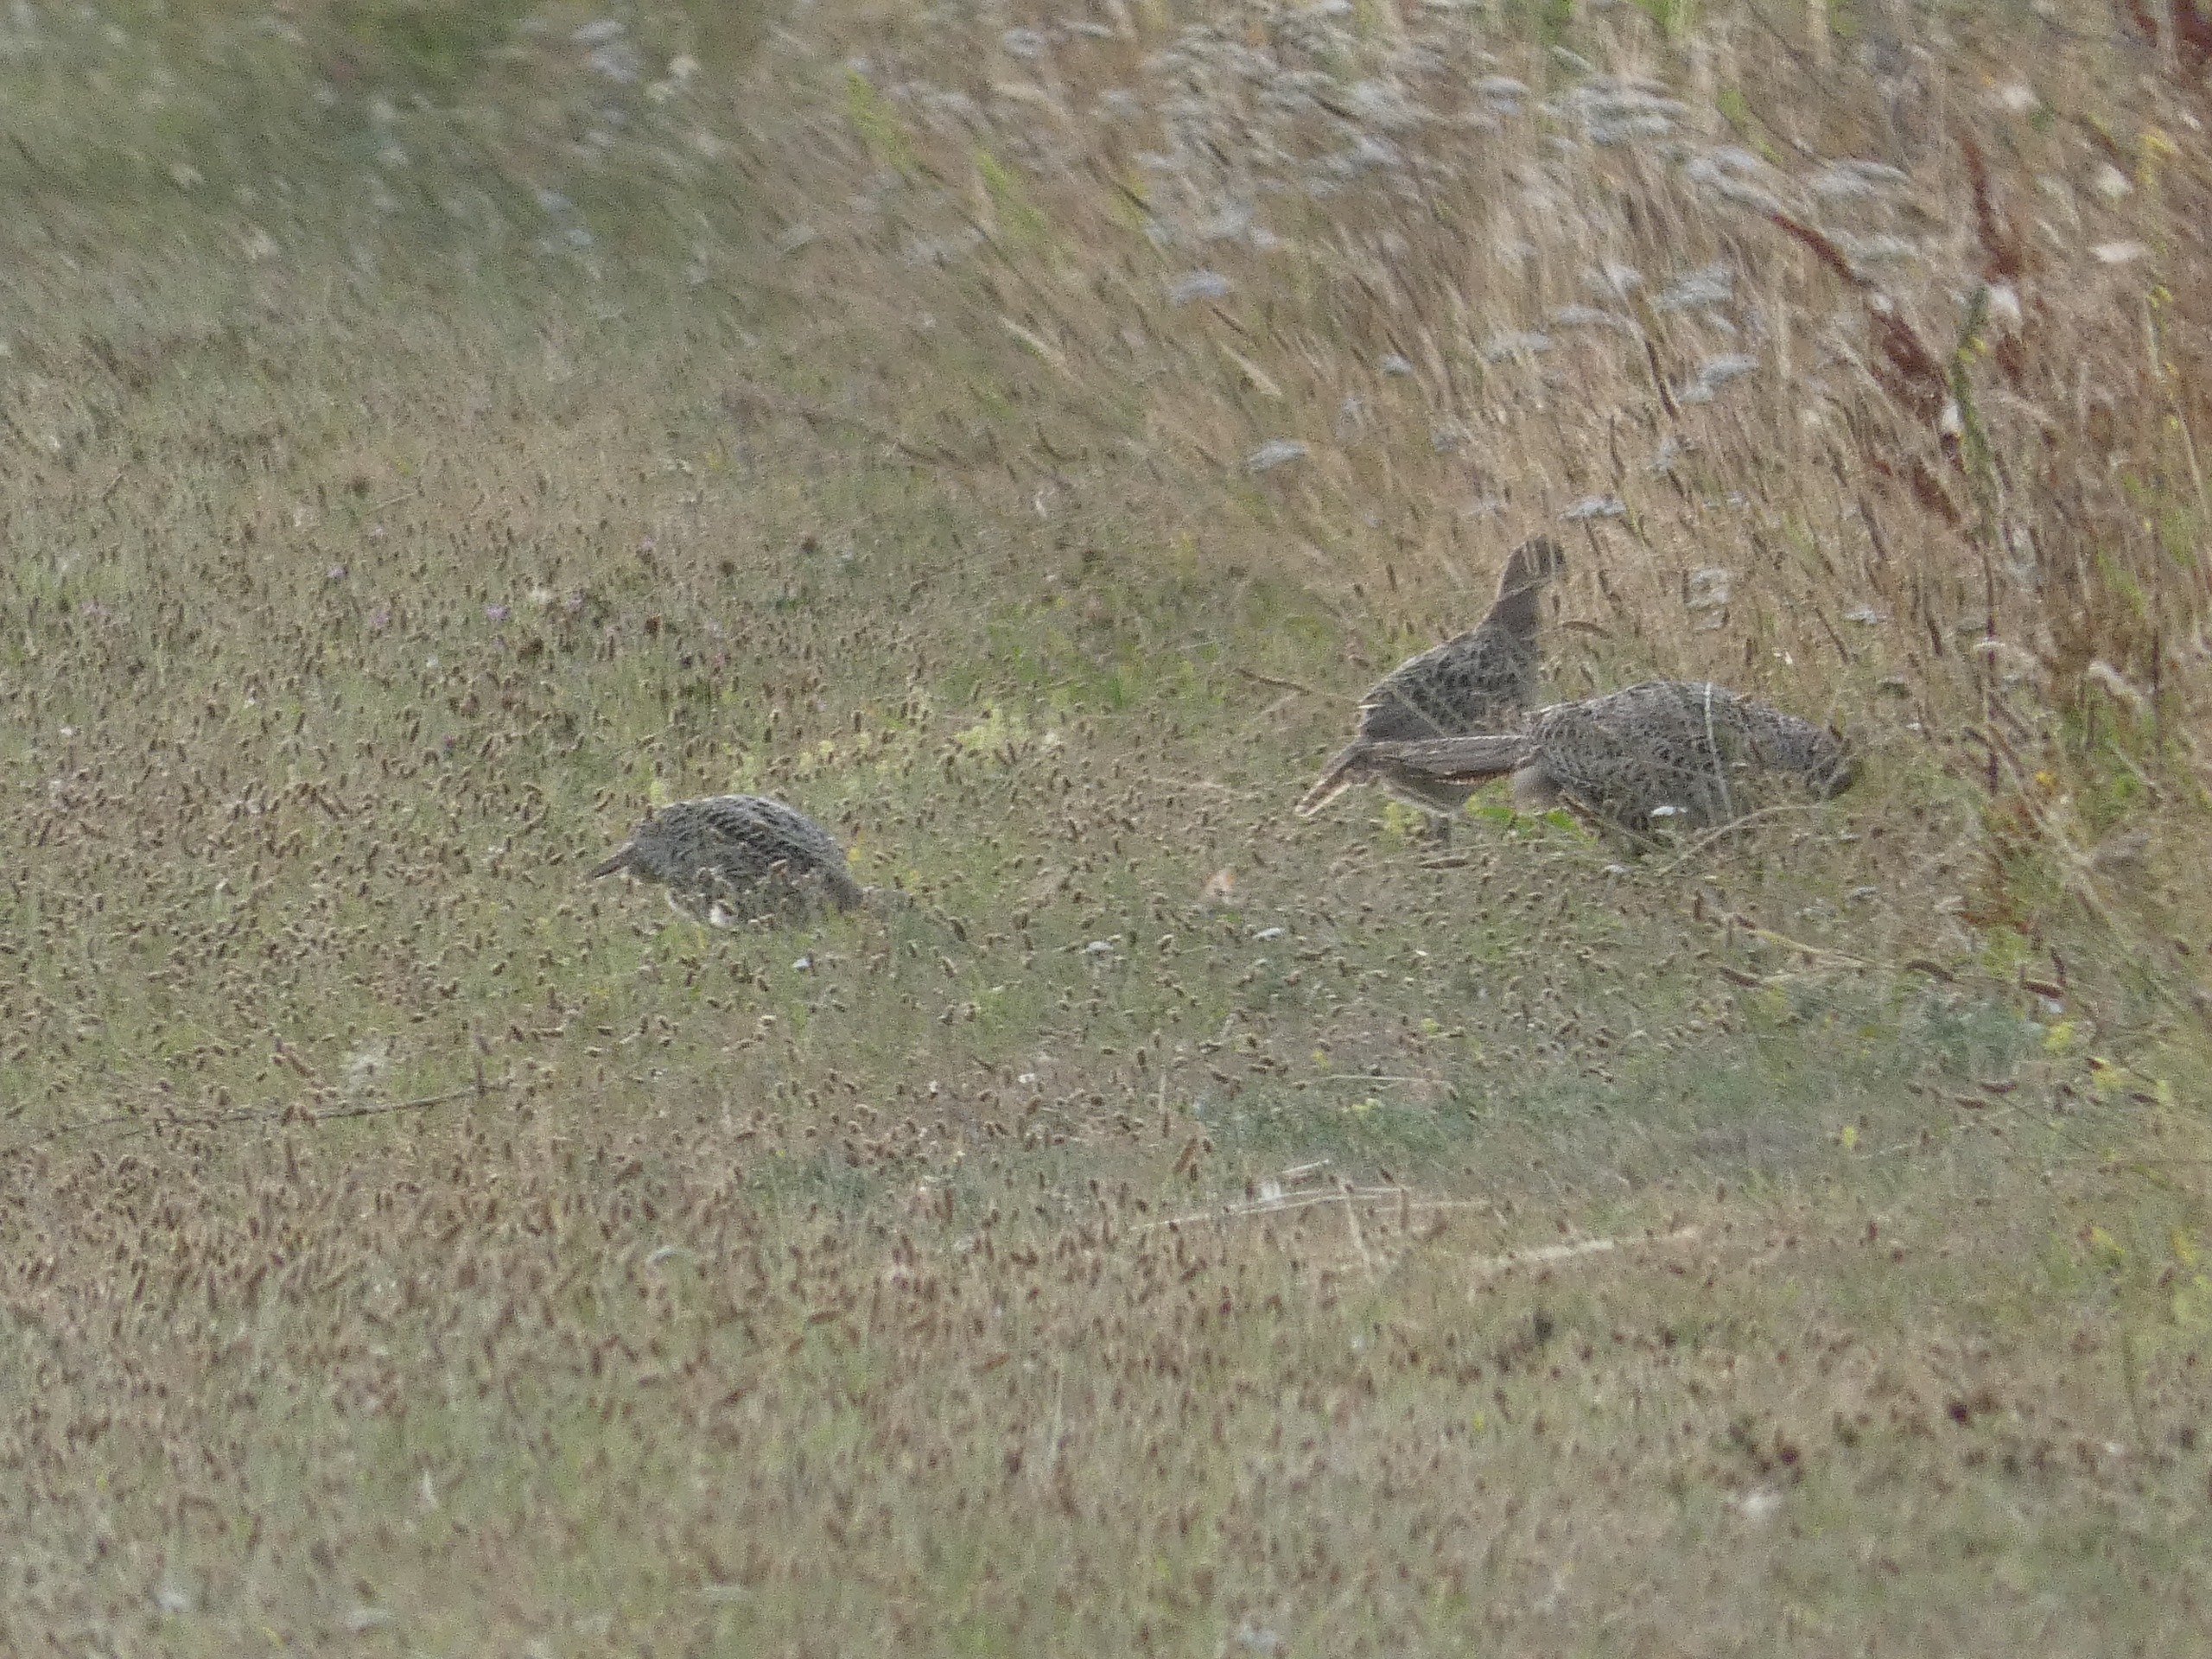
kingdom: Animalia
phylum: Chordata
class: Aves
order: Galliformes
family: Phasianidae
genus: Phasianus
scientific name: Phasianus colchicus
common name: Fasan
